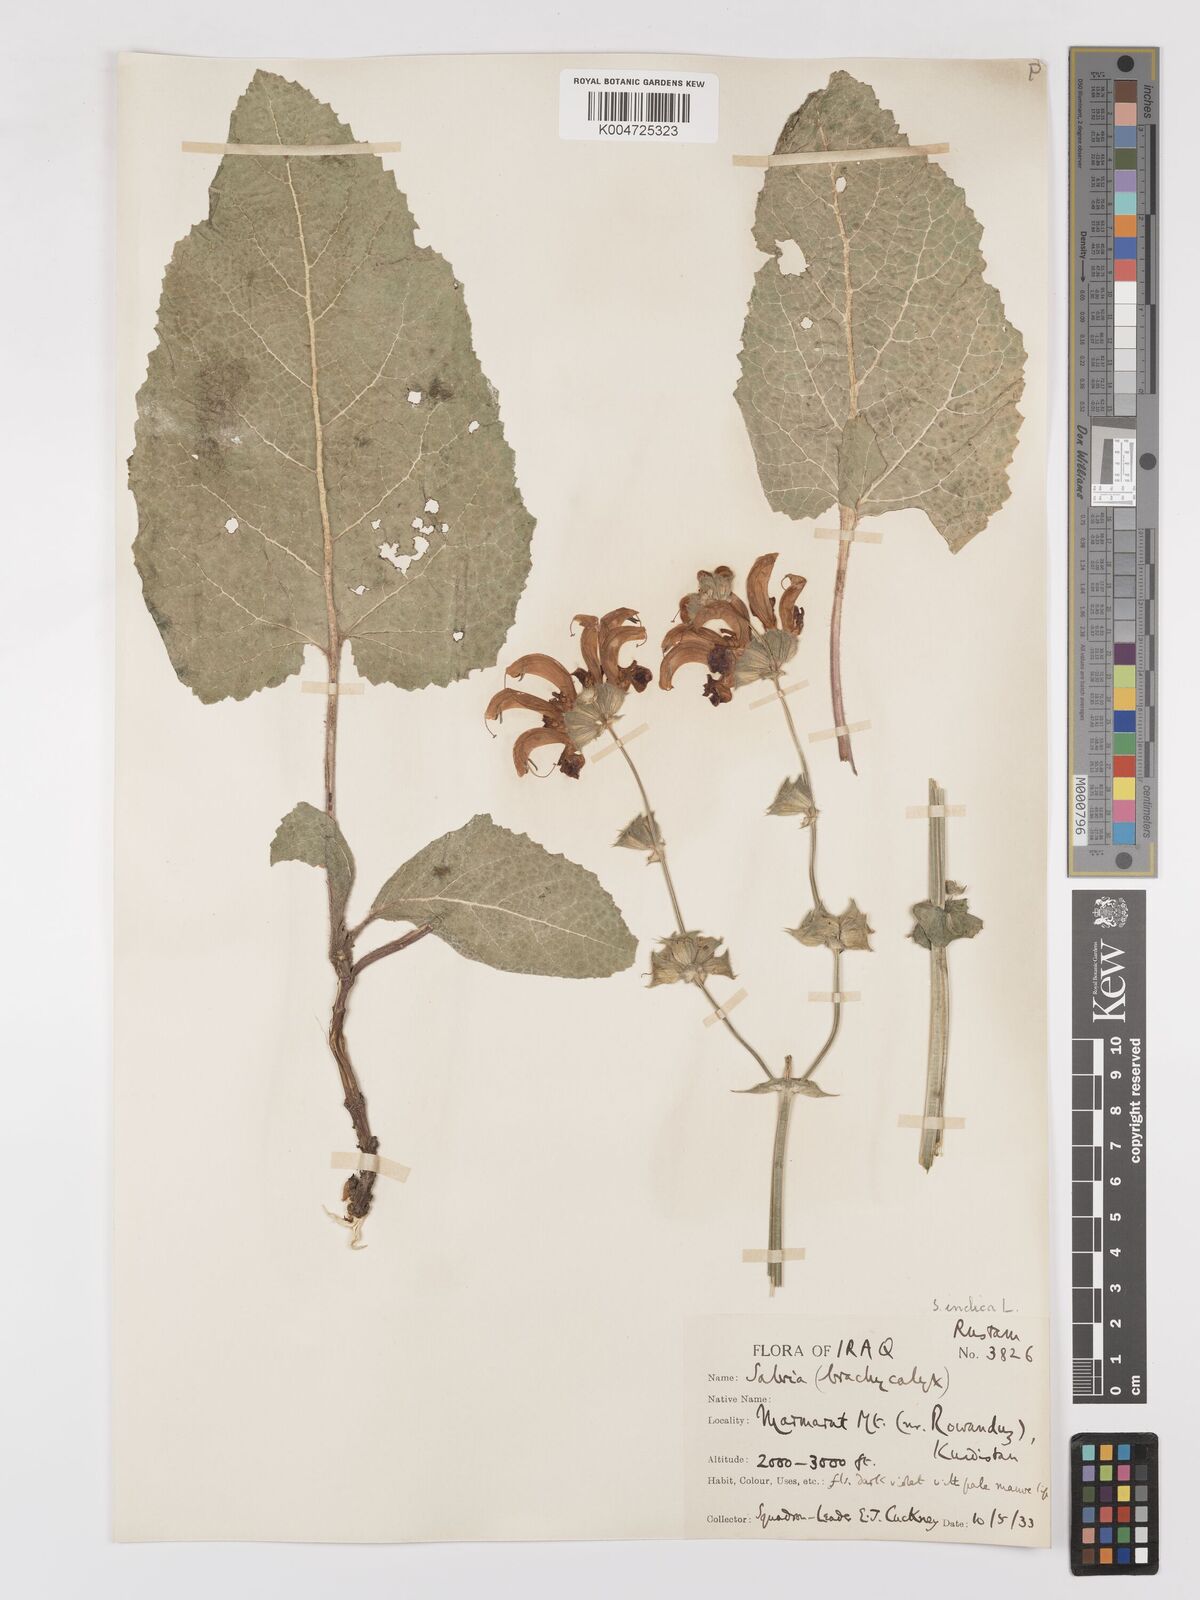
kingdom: Plantae
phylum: Tracheophyta
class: Magnoliopsida
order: Lamiales
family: Lamiaceae
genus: Salvia
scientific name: Salvia indica
